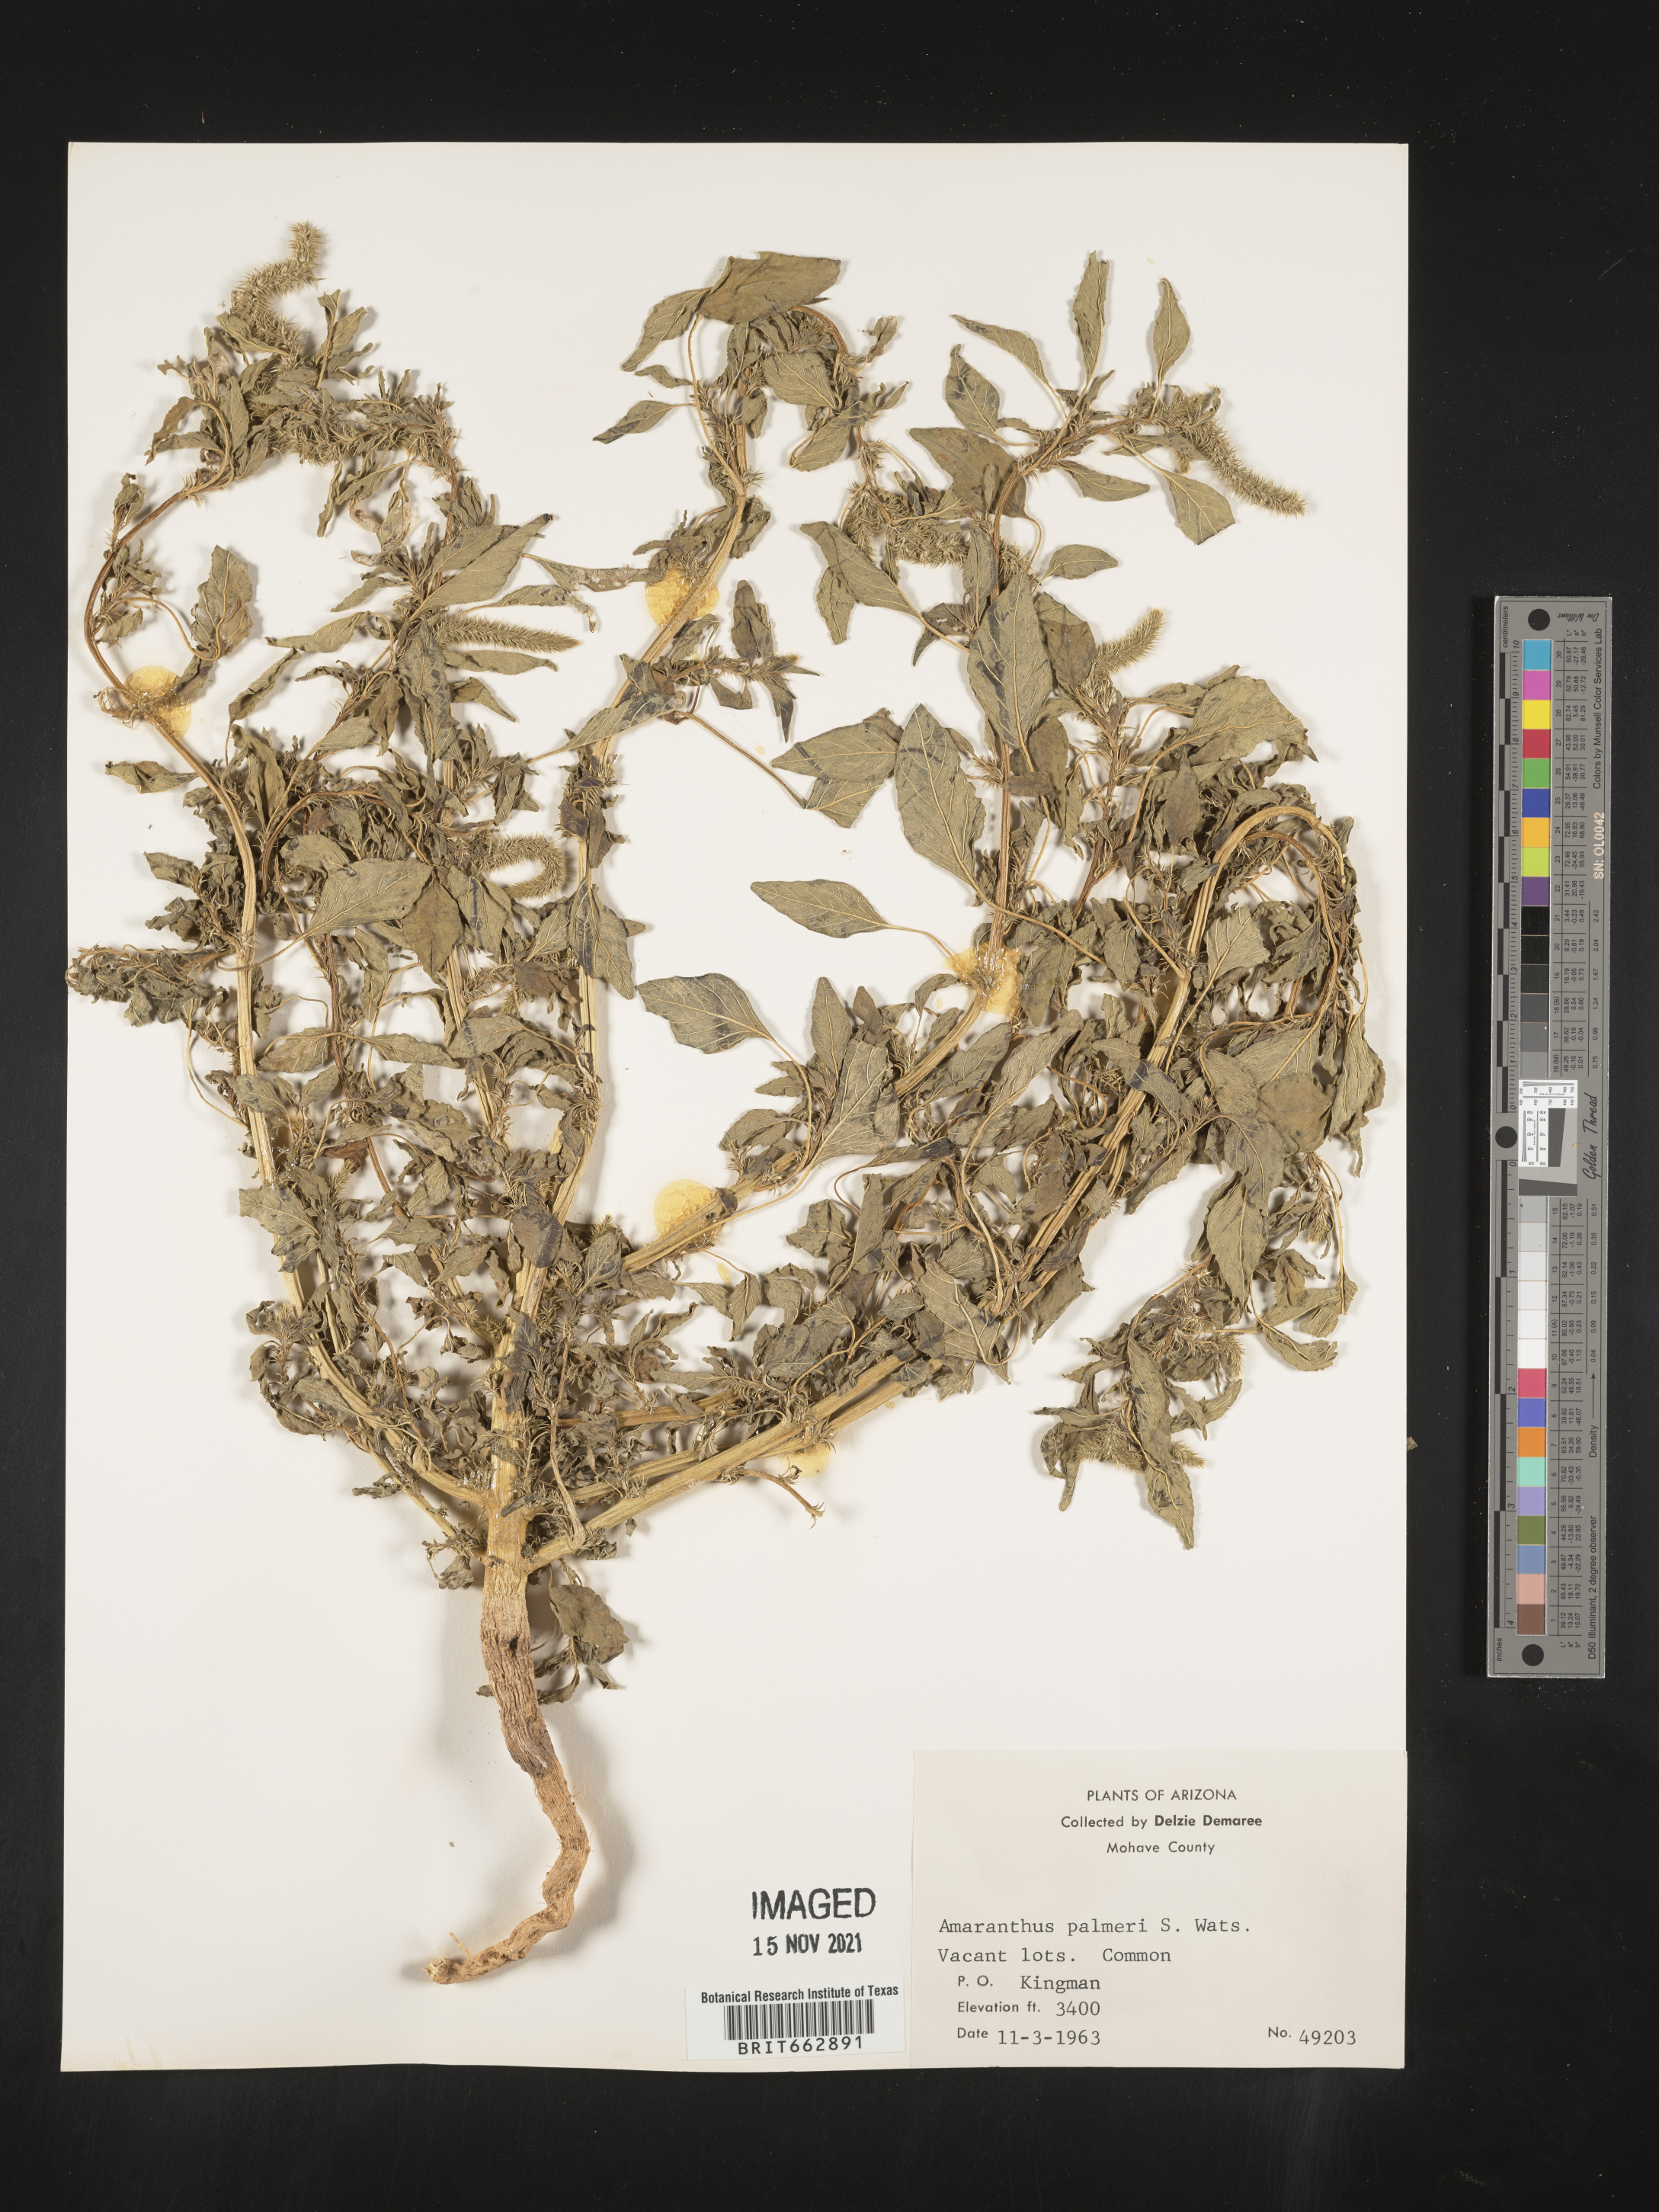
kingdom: Plantae
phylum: Tracheophyta
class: Magnoliopsida
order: Caryophyllales
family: Amaranthaceae
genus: Amaranthus
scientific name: Amaranthus palmeri
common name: Dioecious amaranth
